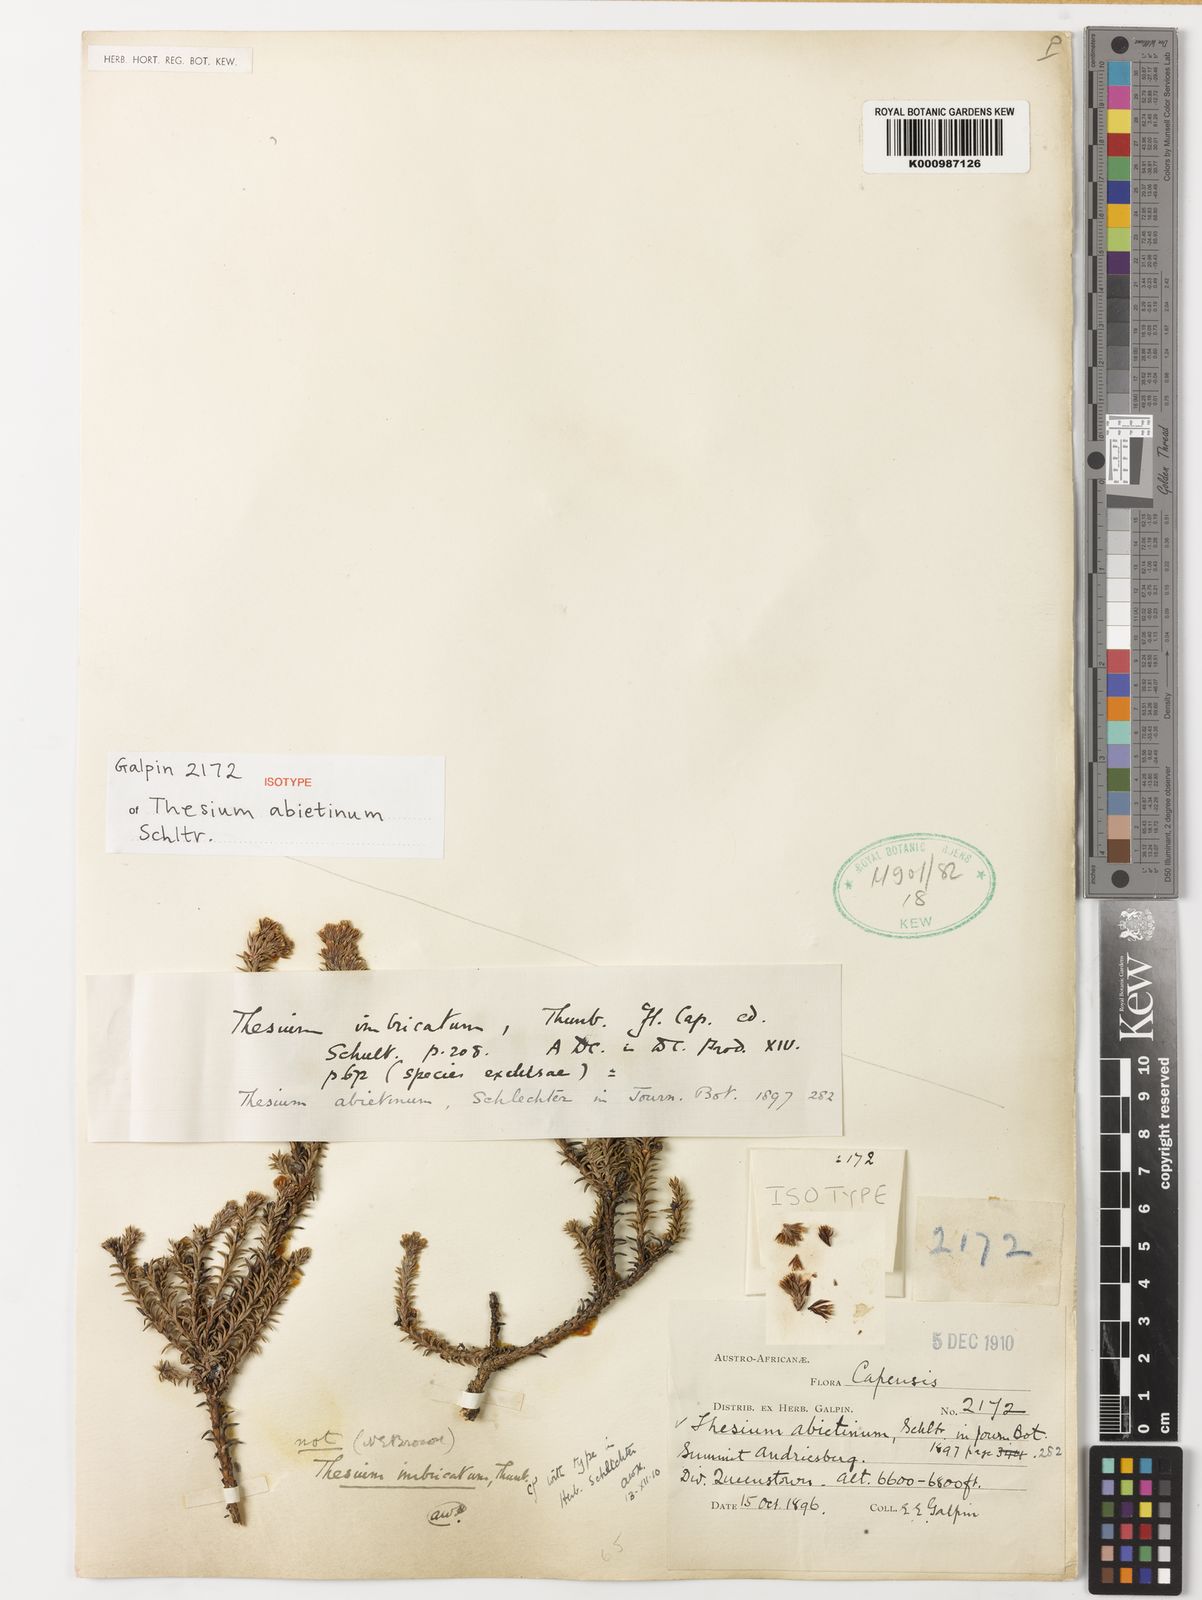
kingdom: Plantae
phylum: Tracheophyta
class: Magnoliopsida
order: Santalales
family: Thesiaceae
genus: Thesium
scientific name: Thesium imbricatum
